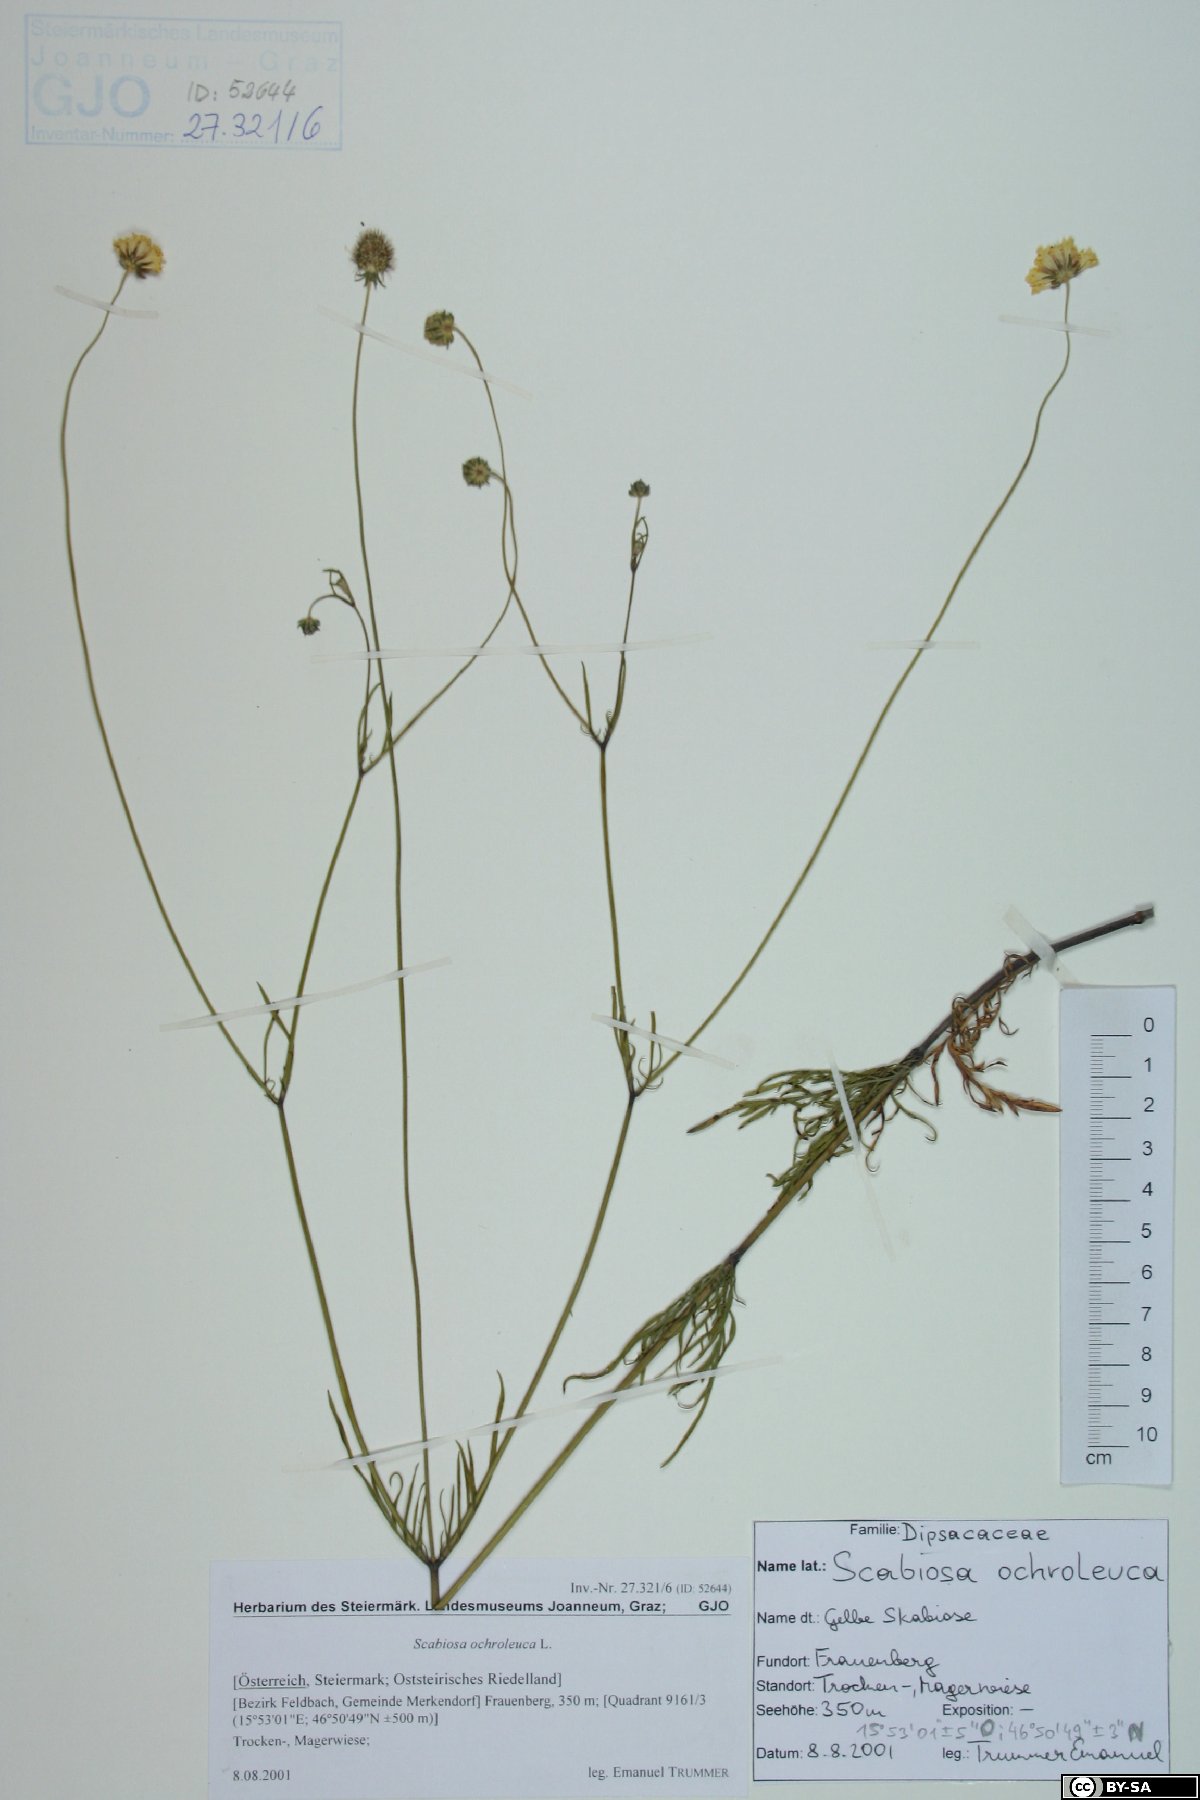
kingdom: Plantae
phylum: Tracheophyta
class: Magnoliopsida
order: Dipsacales
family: Caprifoliaceae
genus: Scabiosa
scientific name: Scabiosa ochroleuca
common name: Cream pincushions
